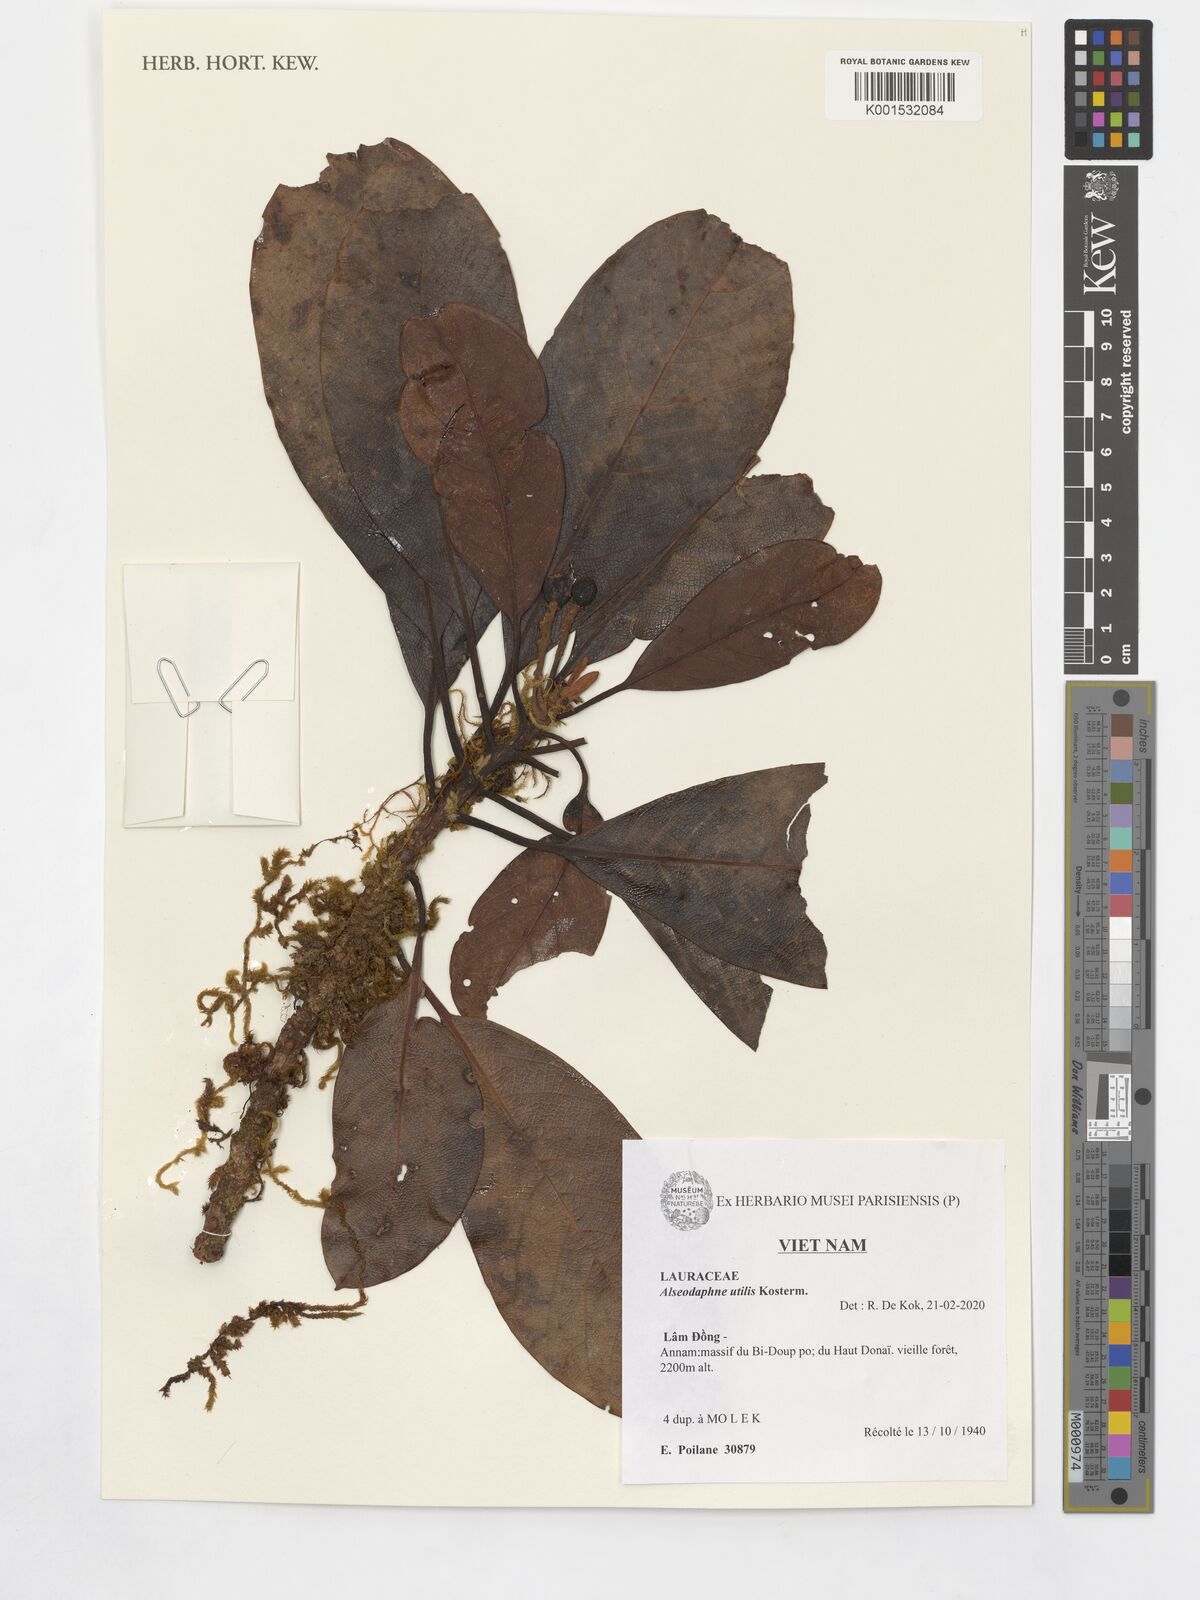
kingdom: Plantae
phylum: Tracheophyta
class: Magnoliopsida
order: Laurales
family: Lauraceae
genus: Alseodaphne
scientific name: Alseodaphne utilis
